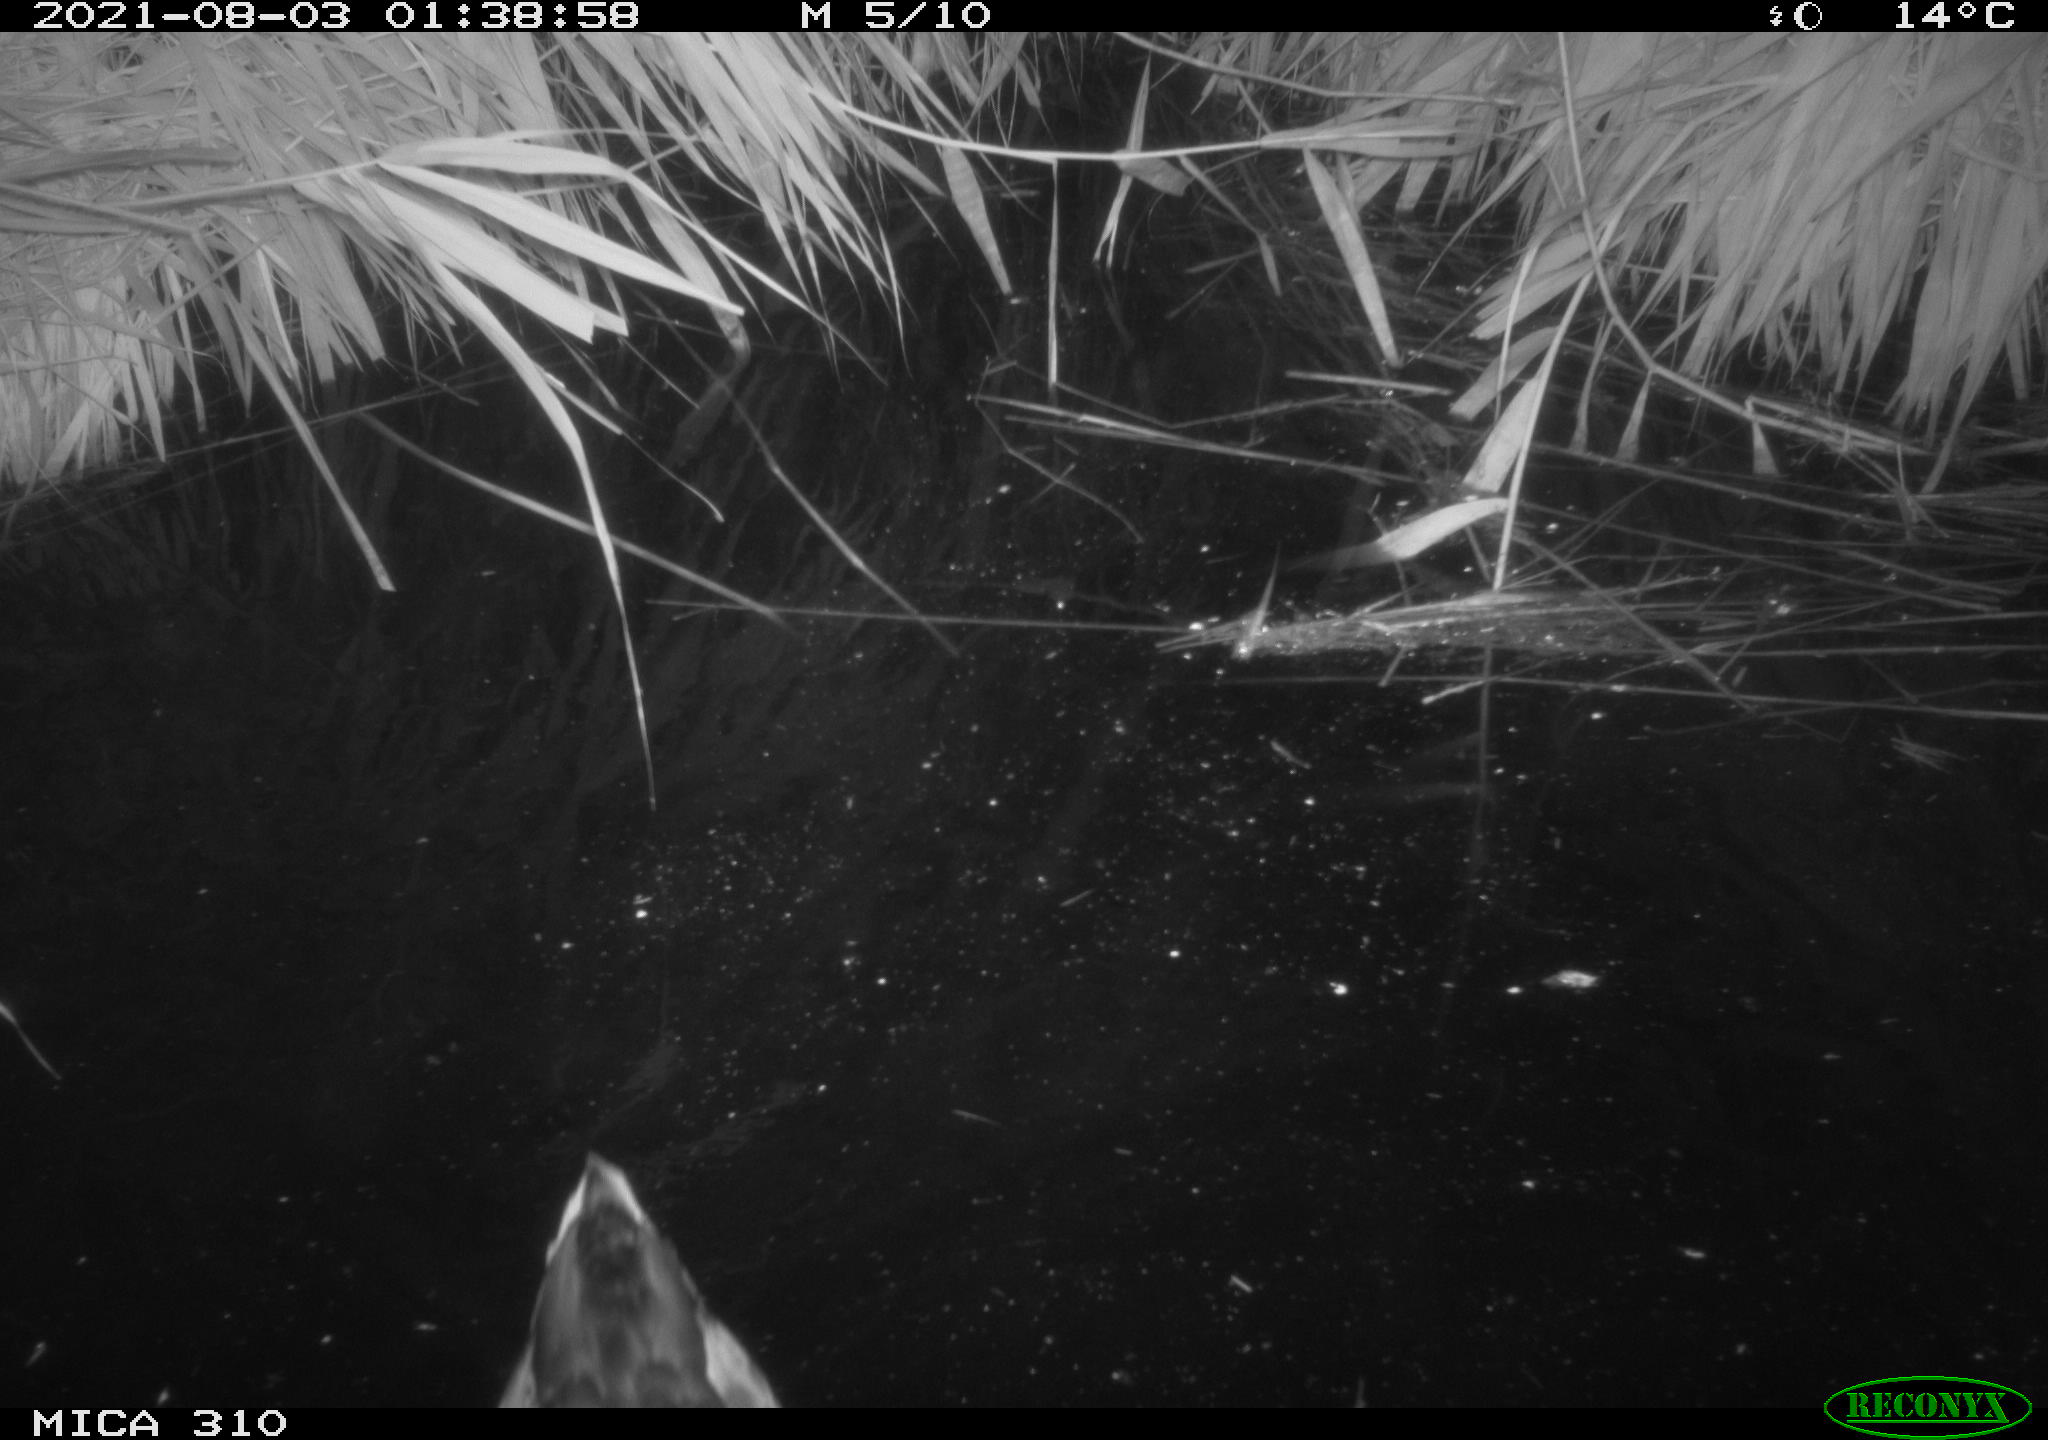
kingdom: Animalia
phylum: Chordata
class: Aves
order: Anseriformes
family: Anatidae
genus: Anas
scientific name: Anas platyrhynchos
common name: Mallard
